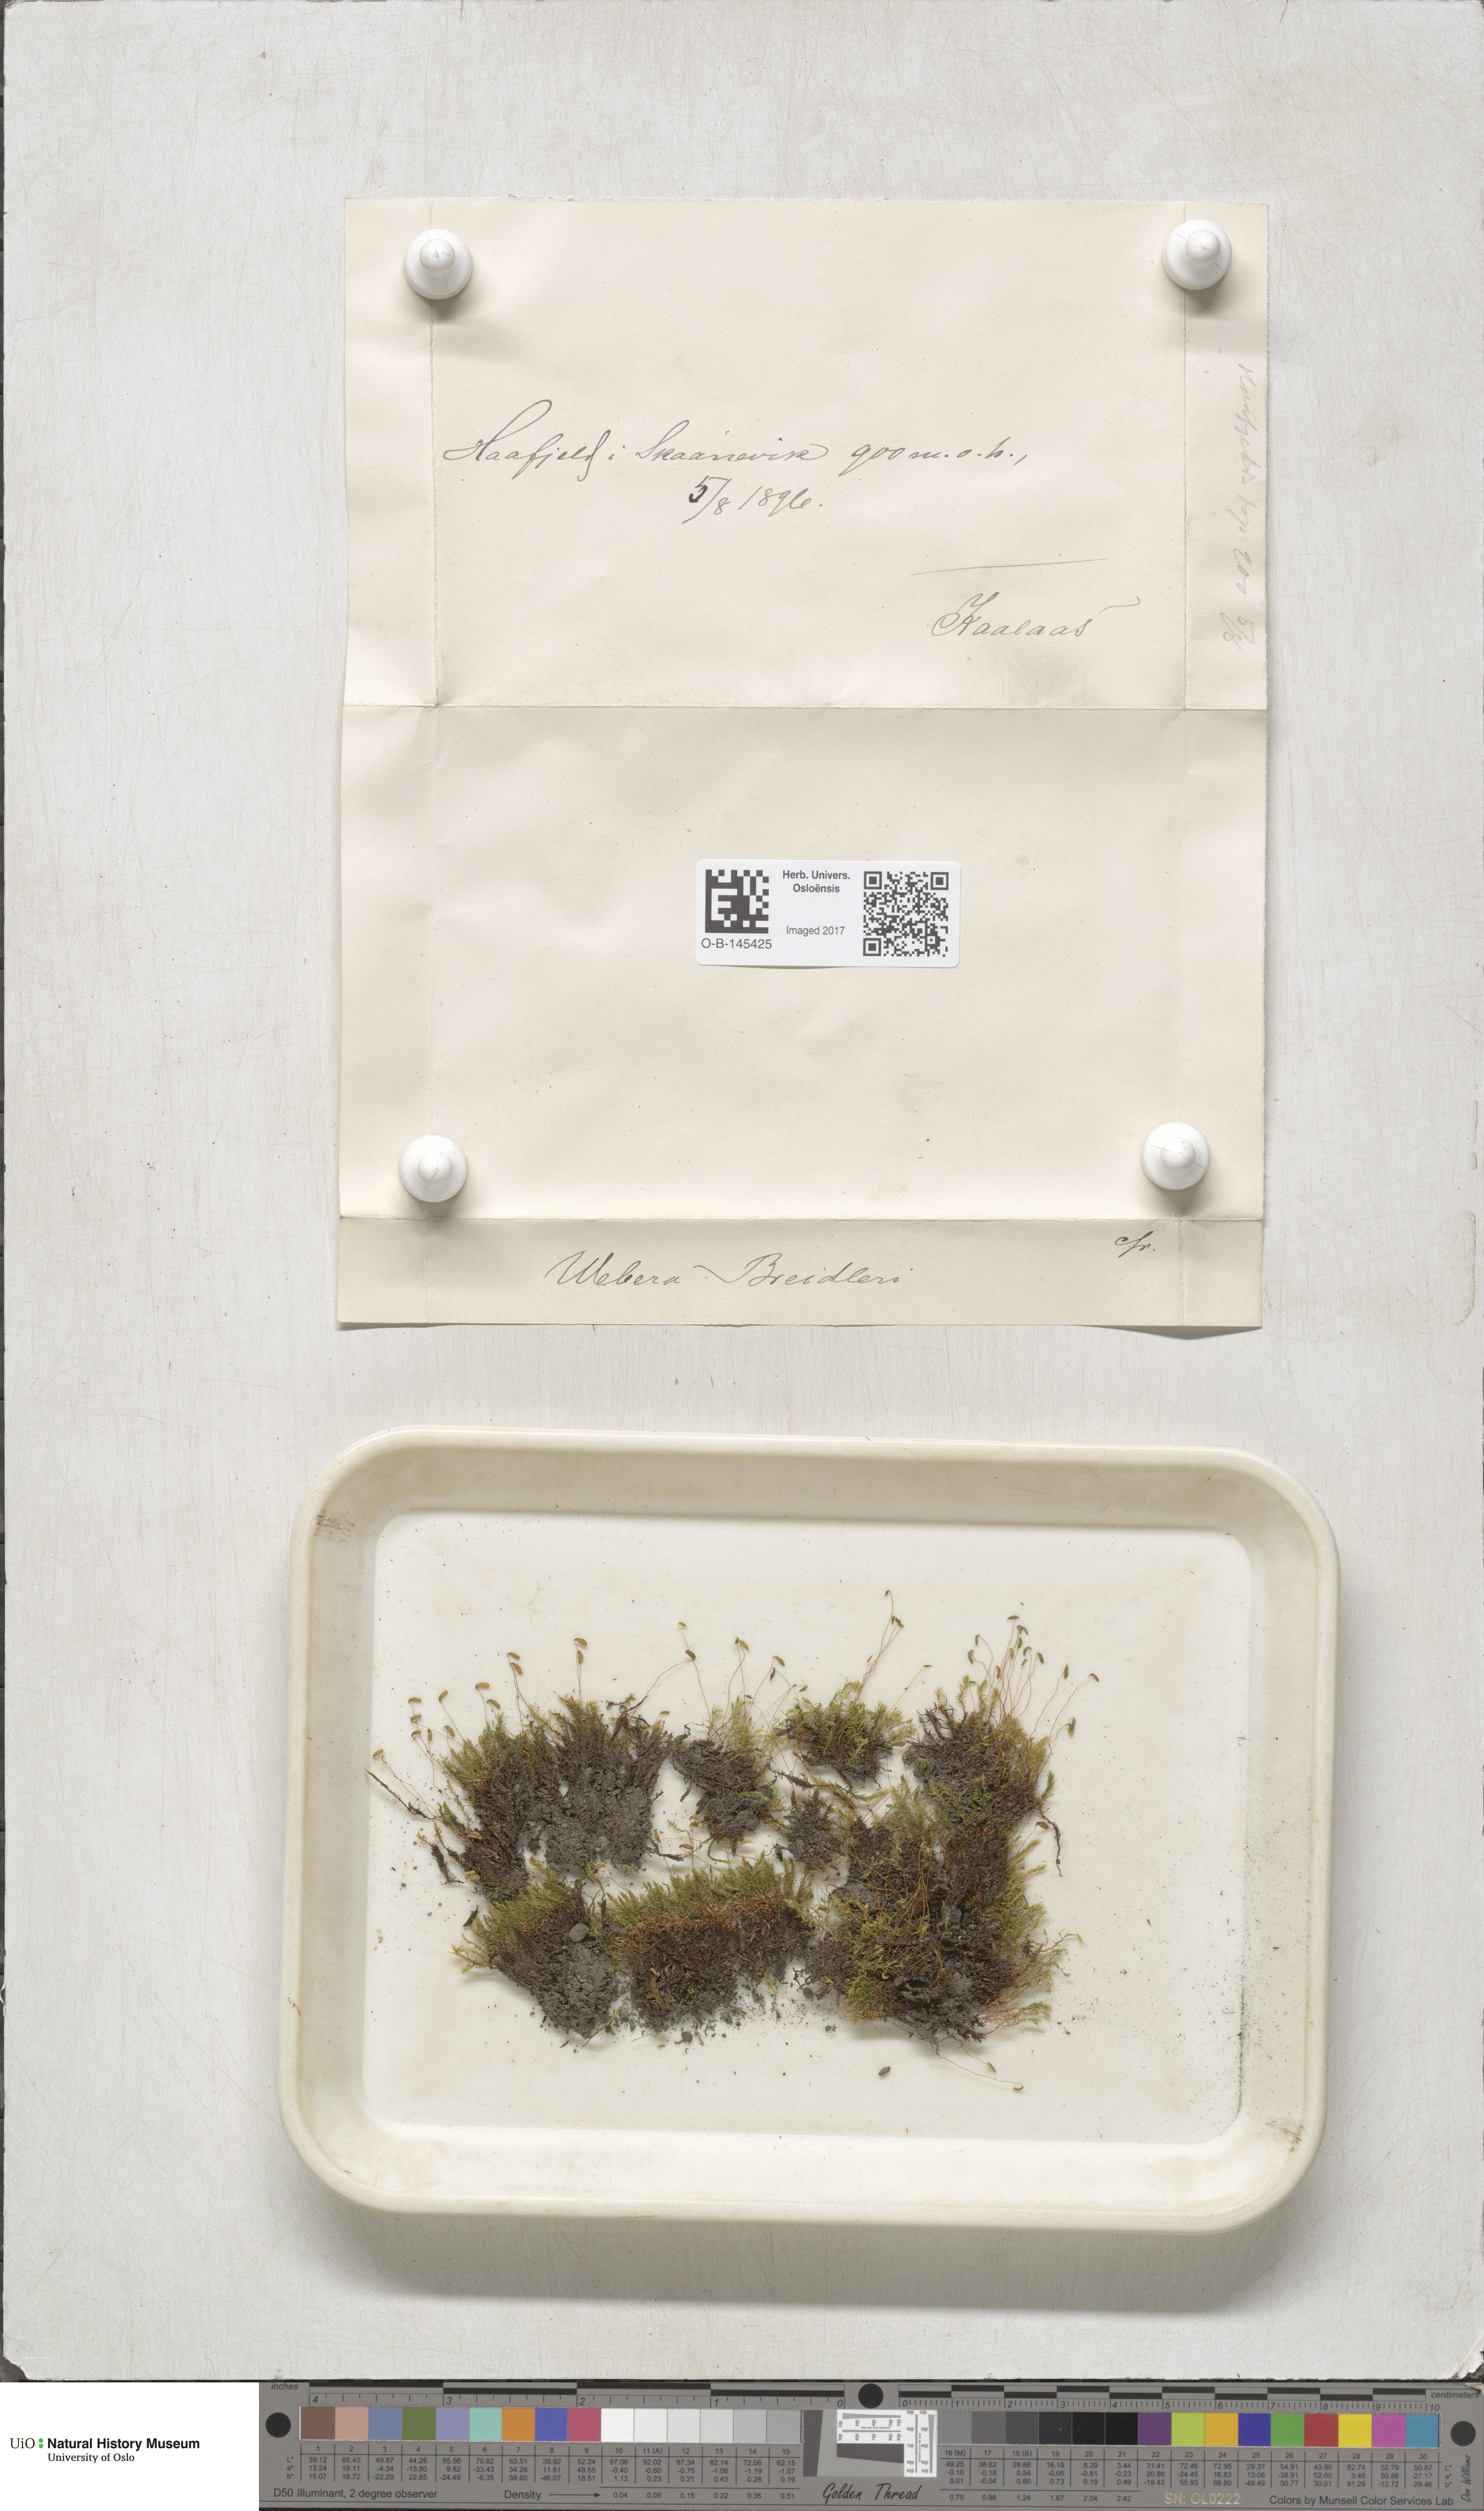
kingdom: Plantae
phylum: Bryophyta
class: Bryopsida
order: Bryales
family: Mniaceae
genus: Pohlia
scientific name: Pohlia ludwigii
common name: Ludwig's thread-moss
